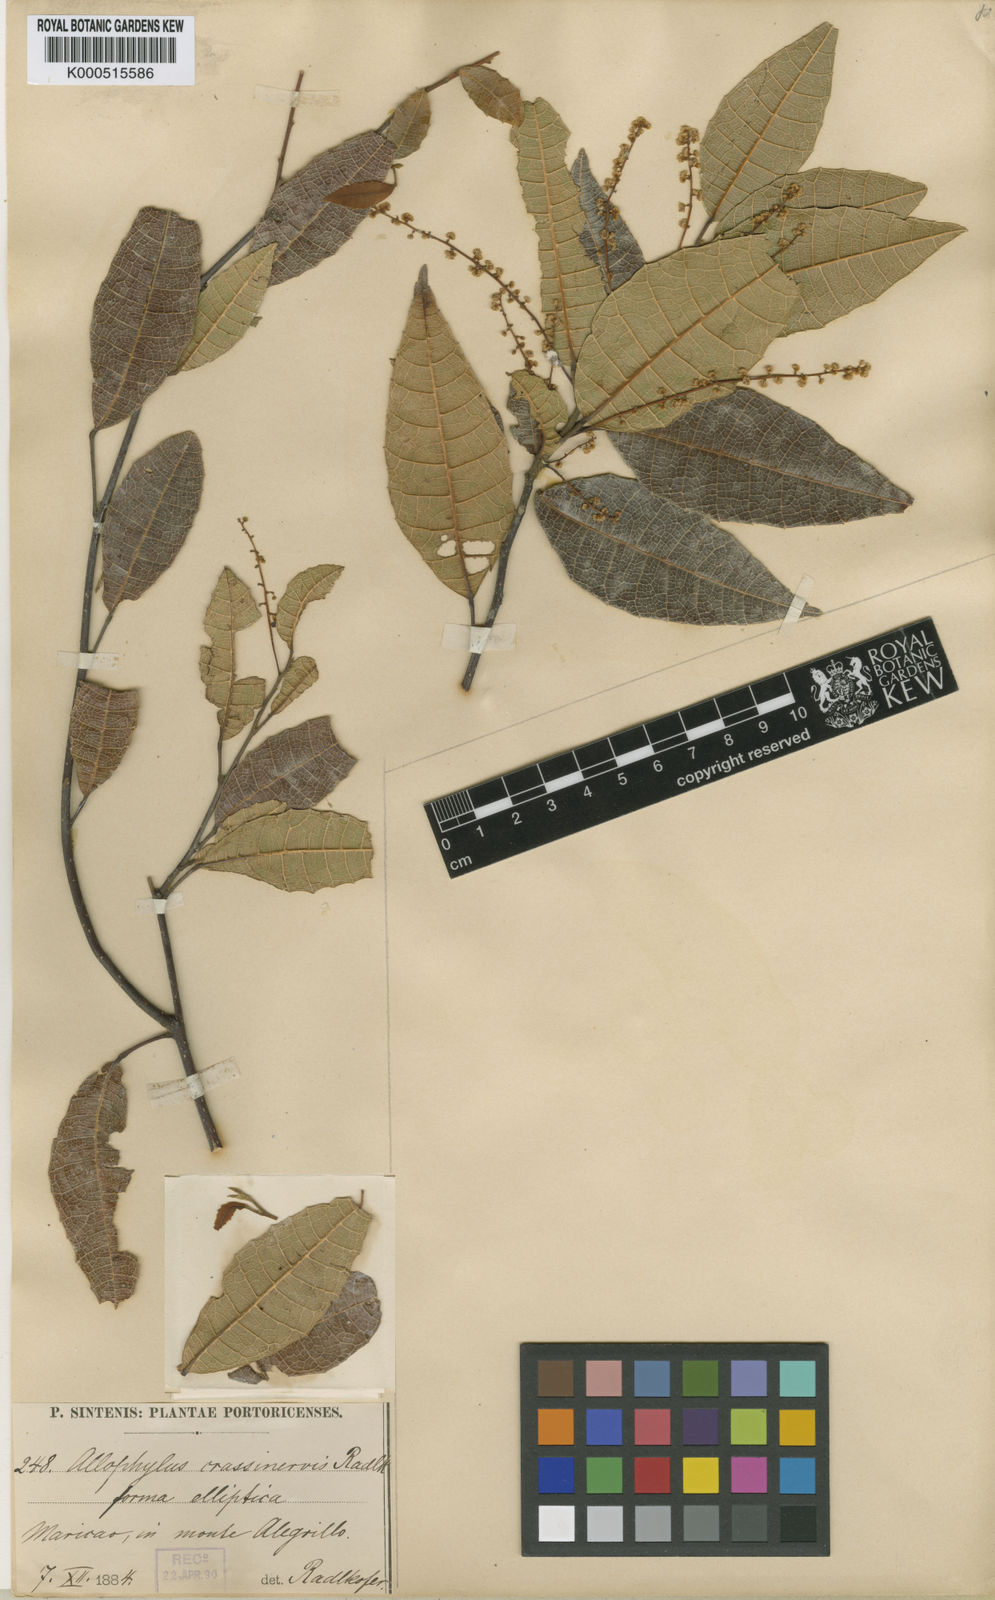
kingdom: Plantae
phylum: Tracheophyta
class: Magnoliopsida
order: Sapindales
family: Sapindaceae
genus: Allophylus
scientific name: Allophylus crassinervis
